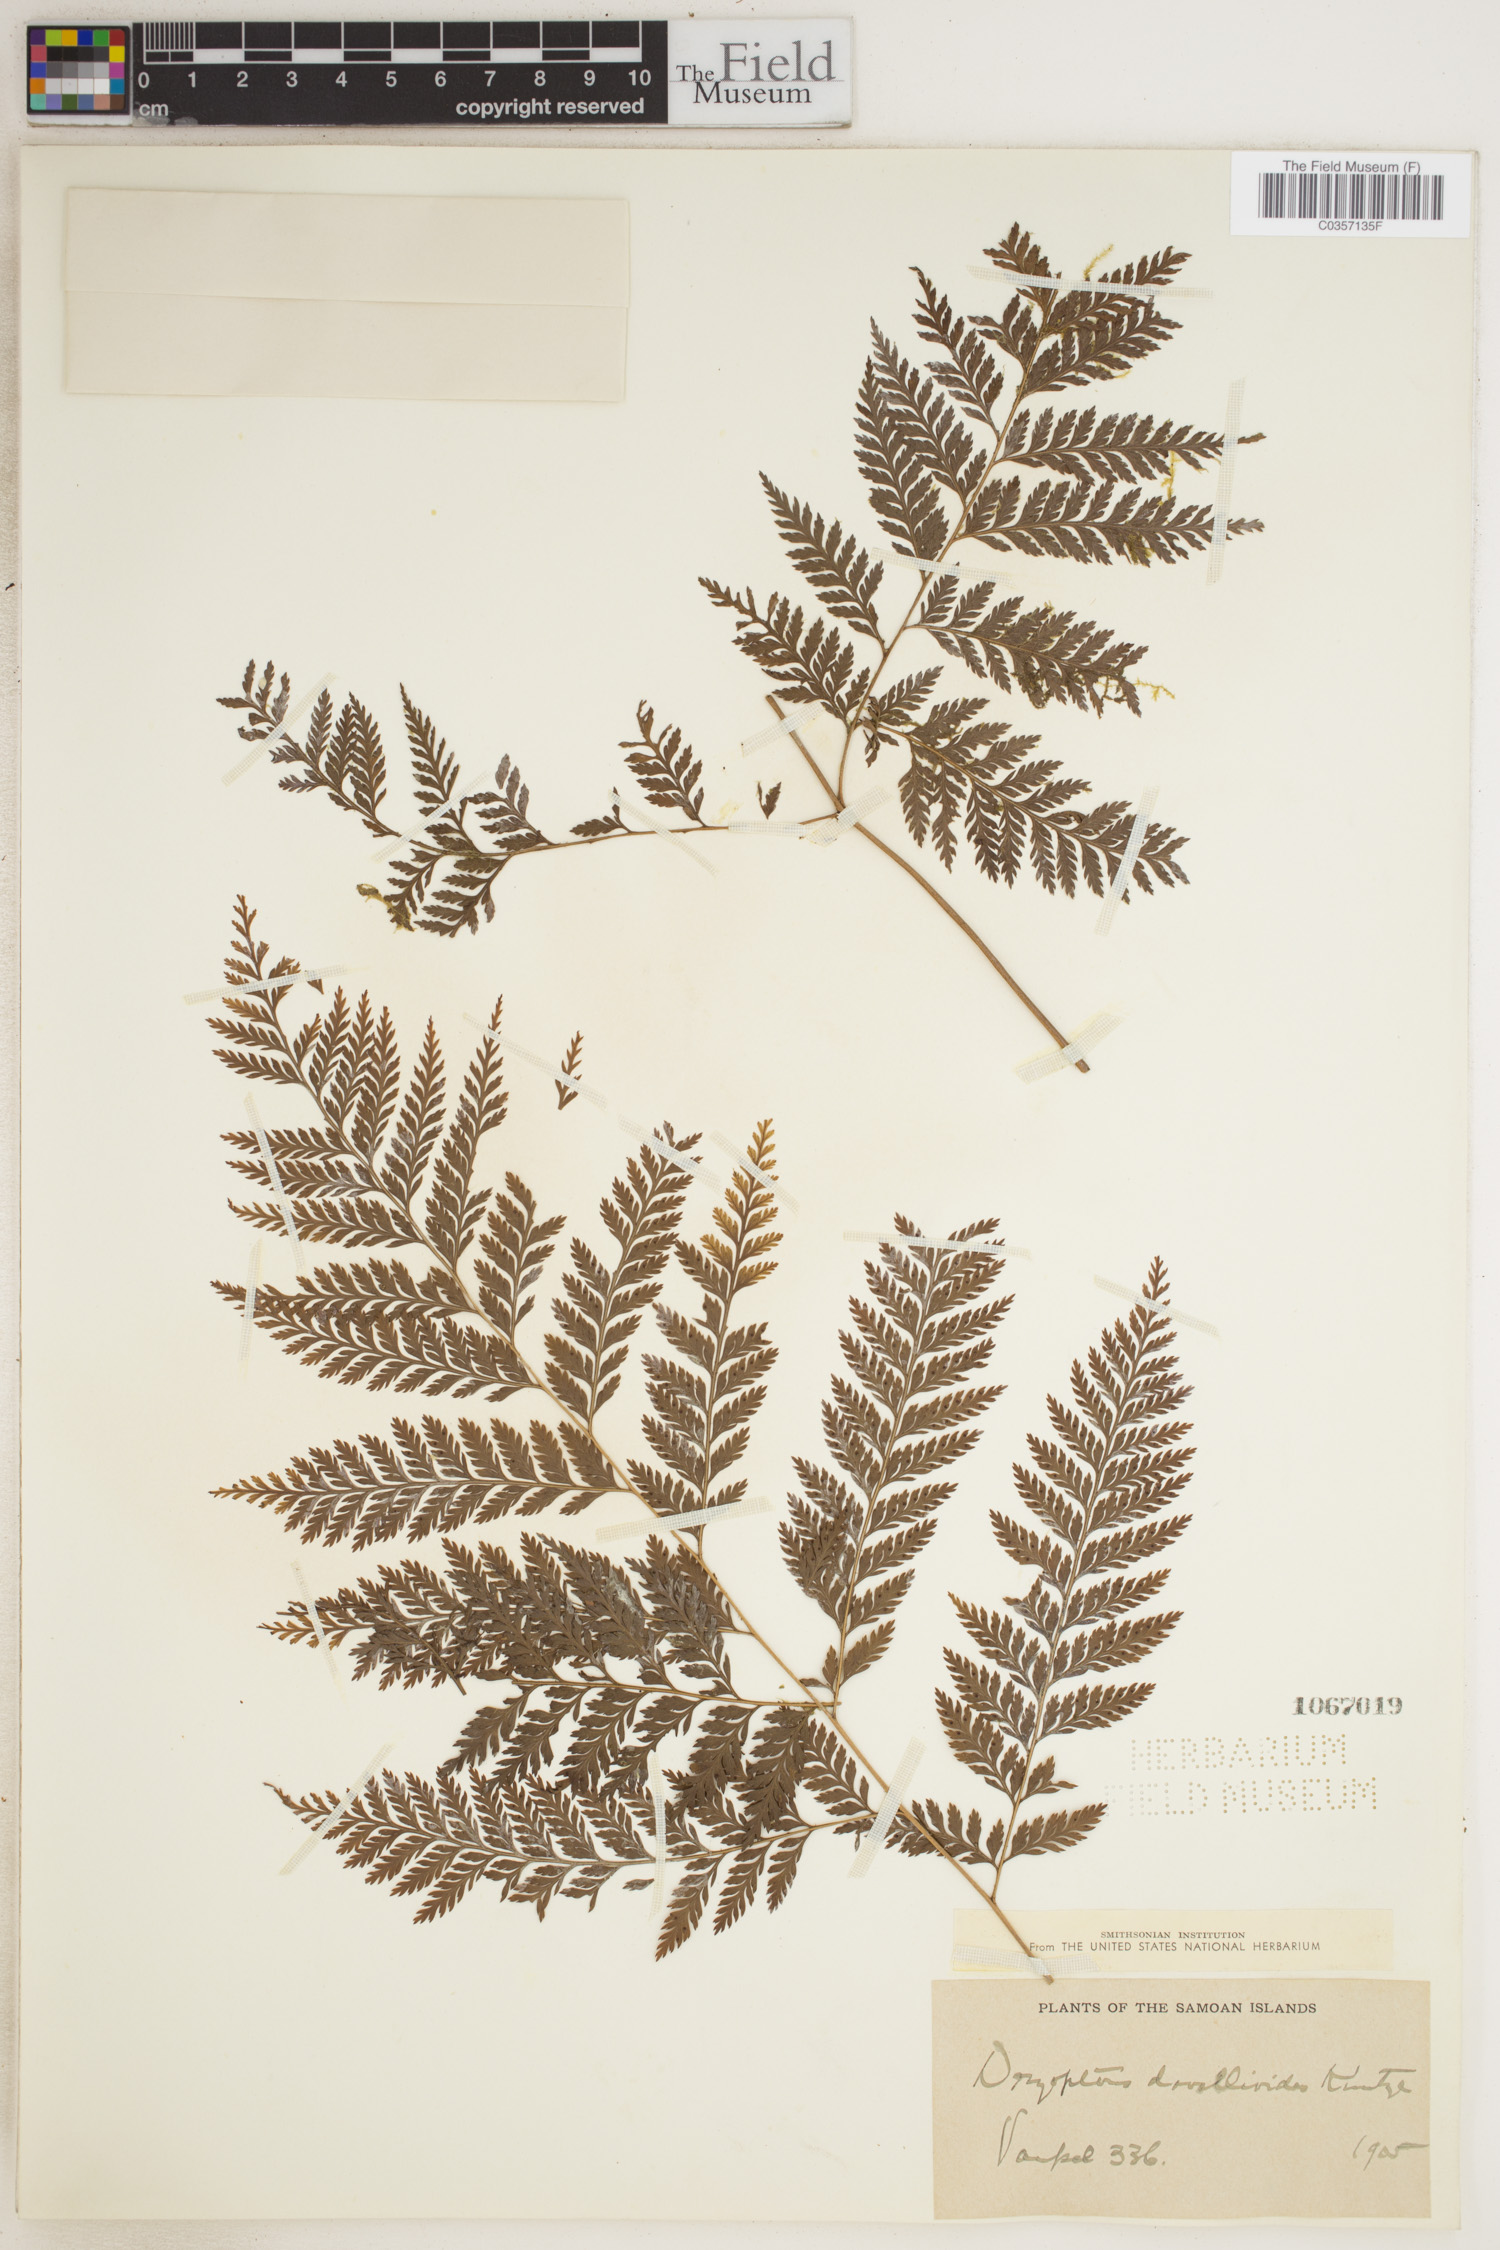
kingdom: Plantae
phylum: Tracheophyta
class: Polypodiopsida
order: Polypodiales
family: Dryopteridaceae
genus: Lastreopsis
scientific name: Lastreopsis davallioides
